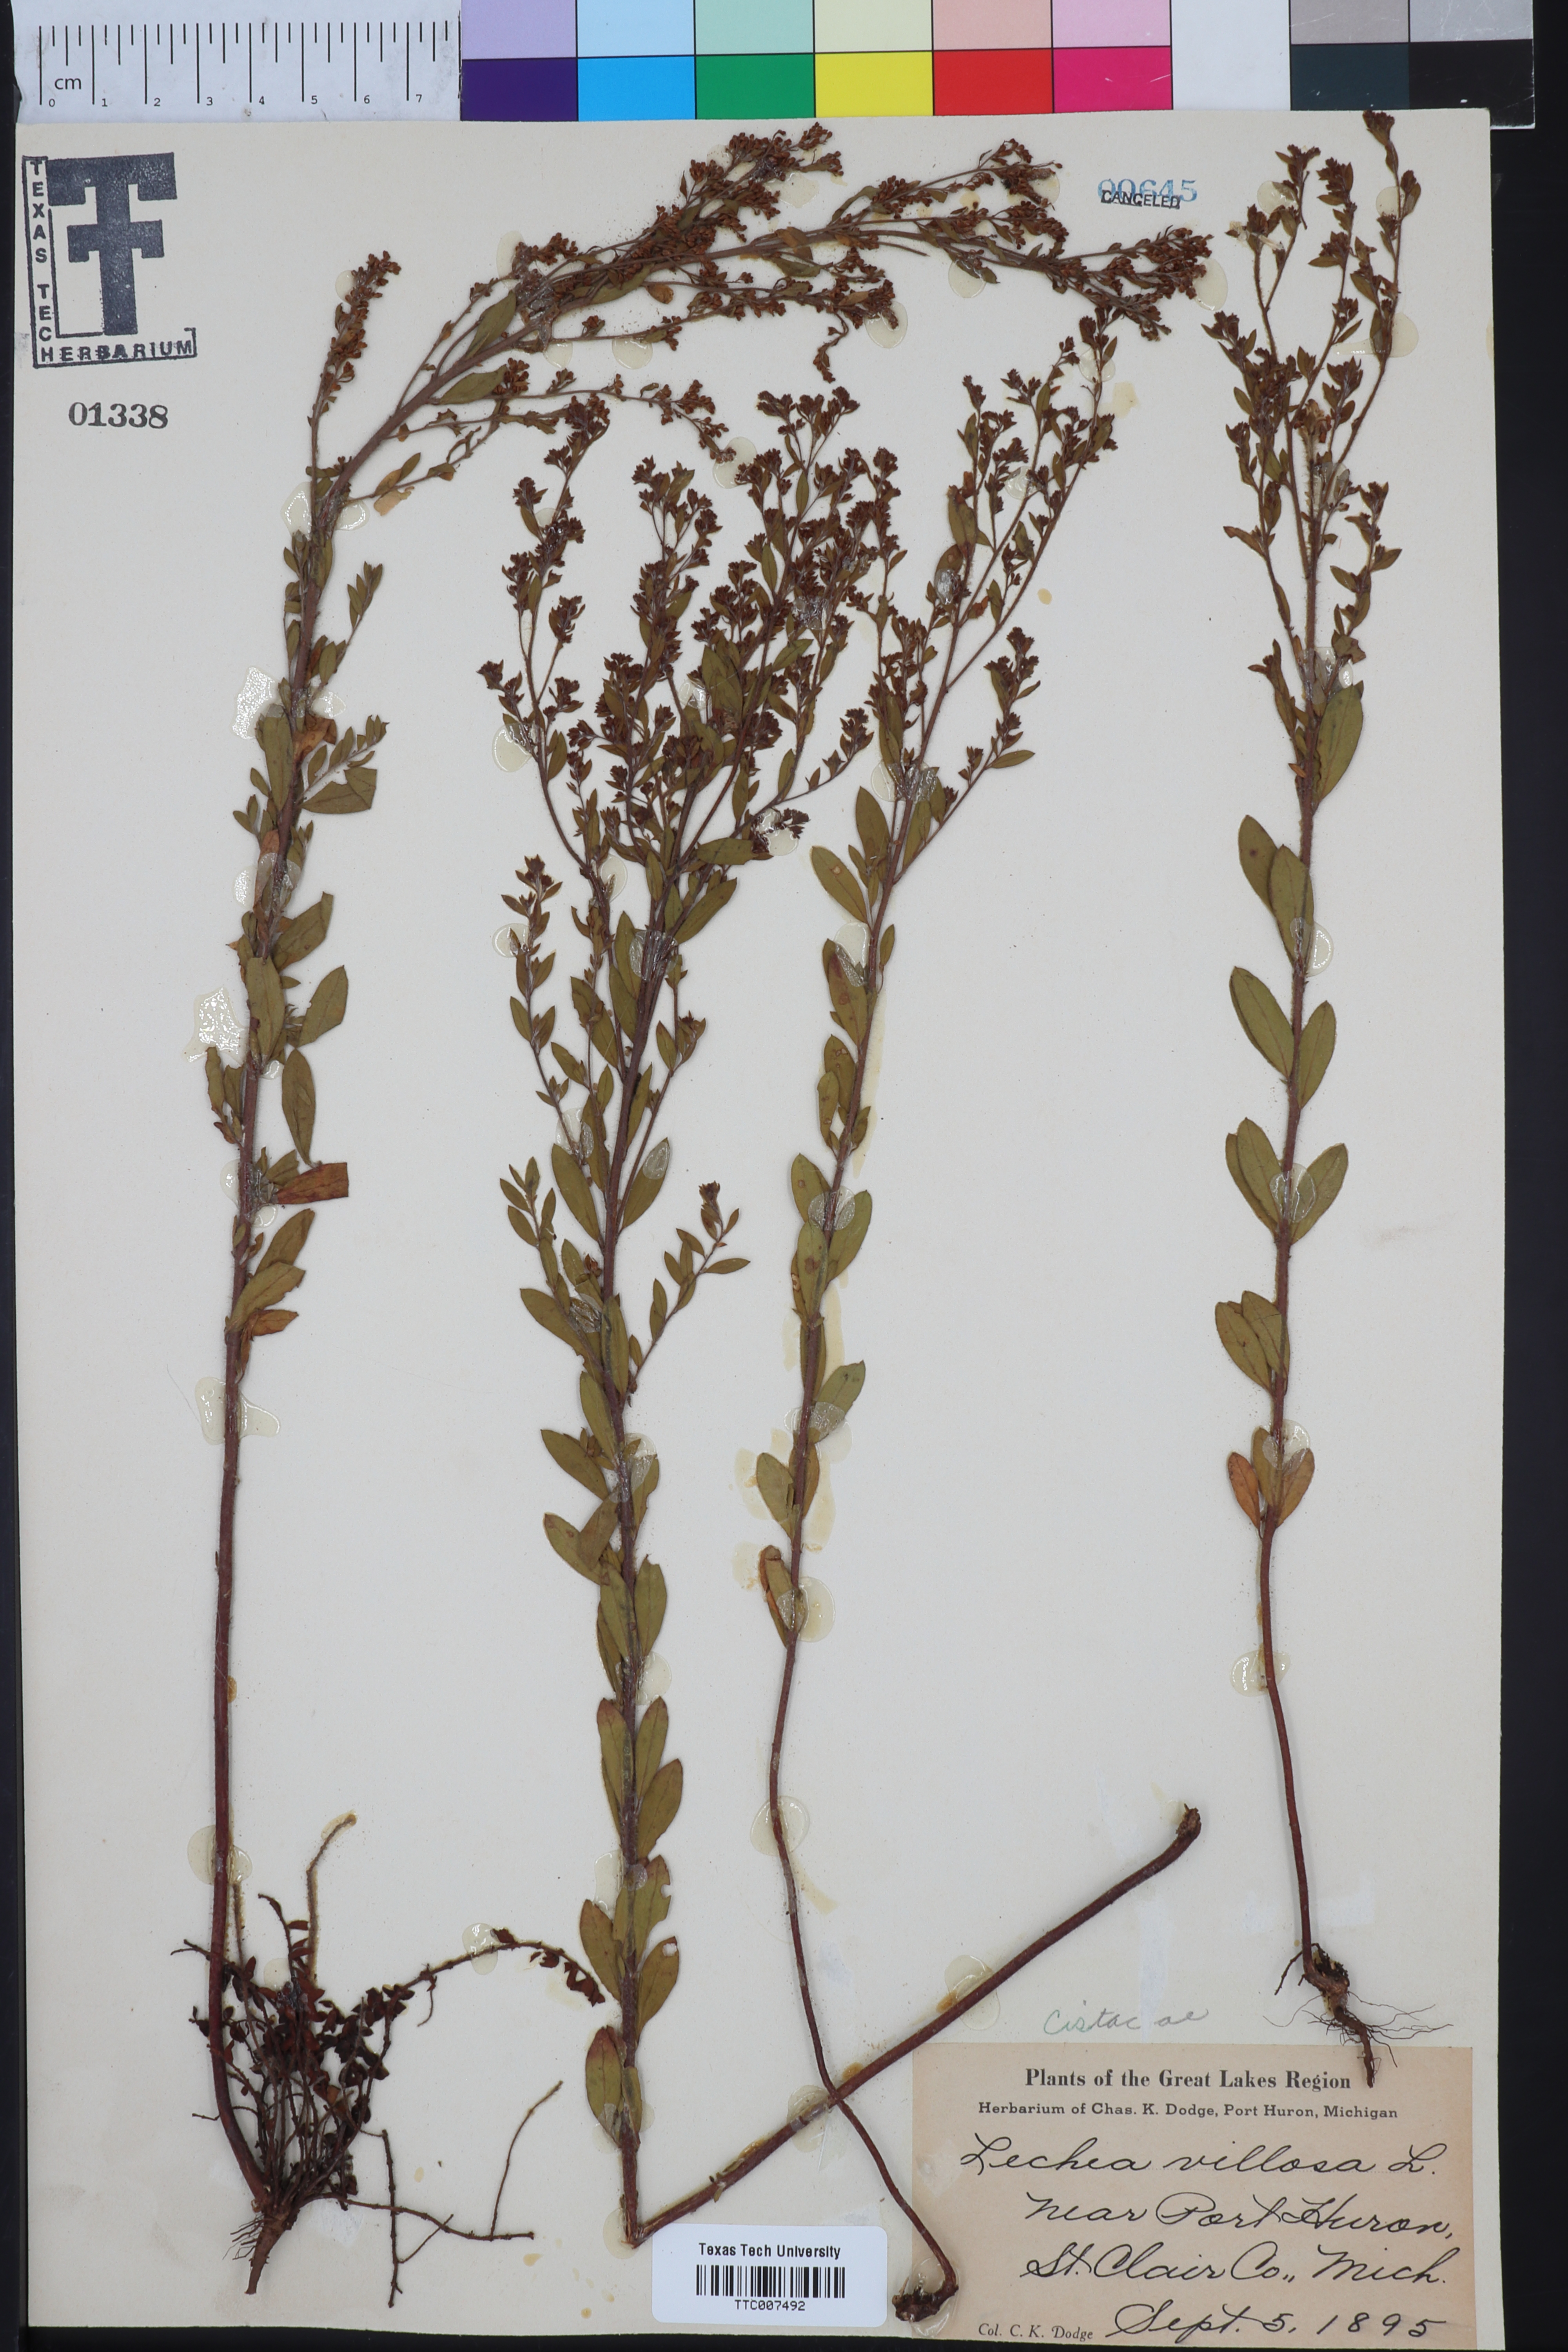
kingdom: Plantae
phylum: Tracheophyta
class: Magnoliopsida
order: Malvales
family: Cistaceae
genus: Lechea
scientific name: Lechea mucronata
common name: Hairy pinweed
